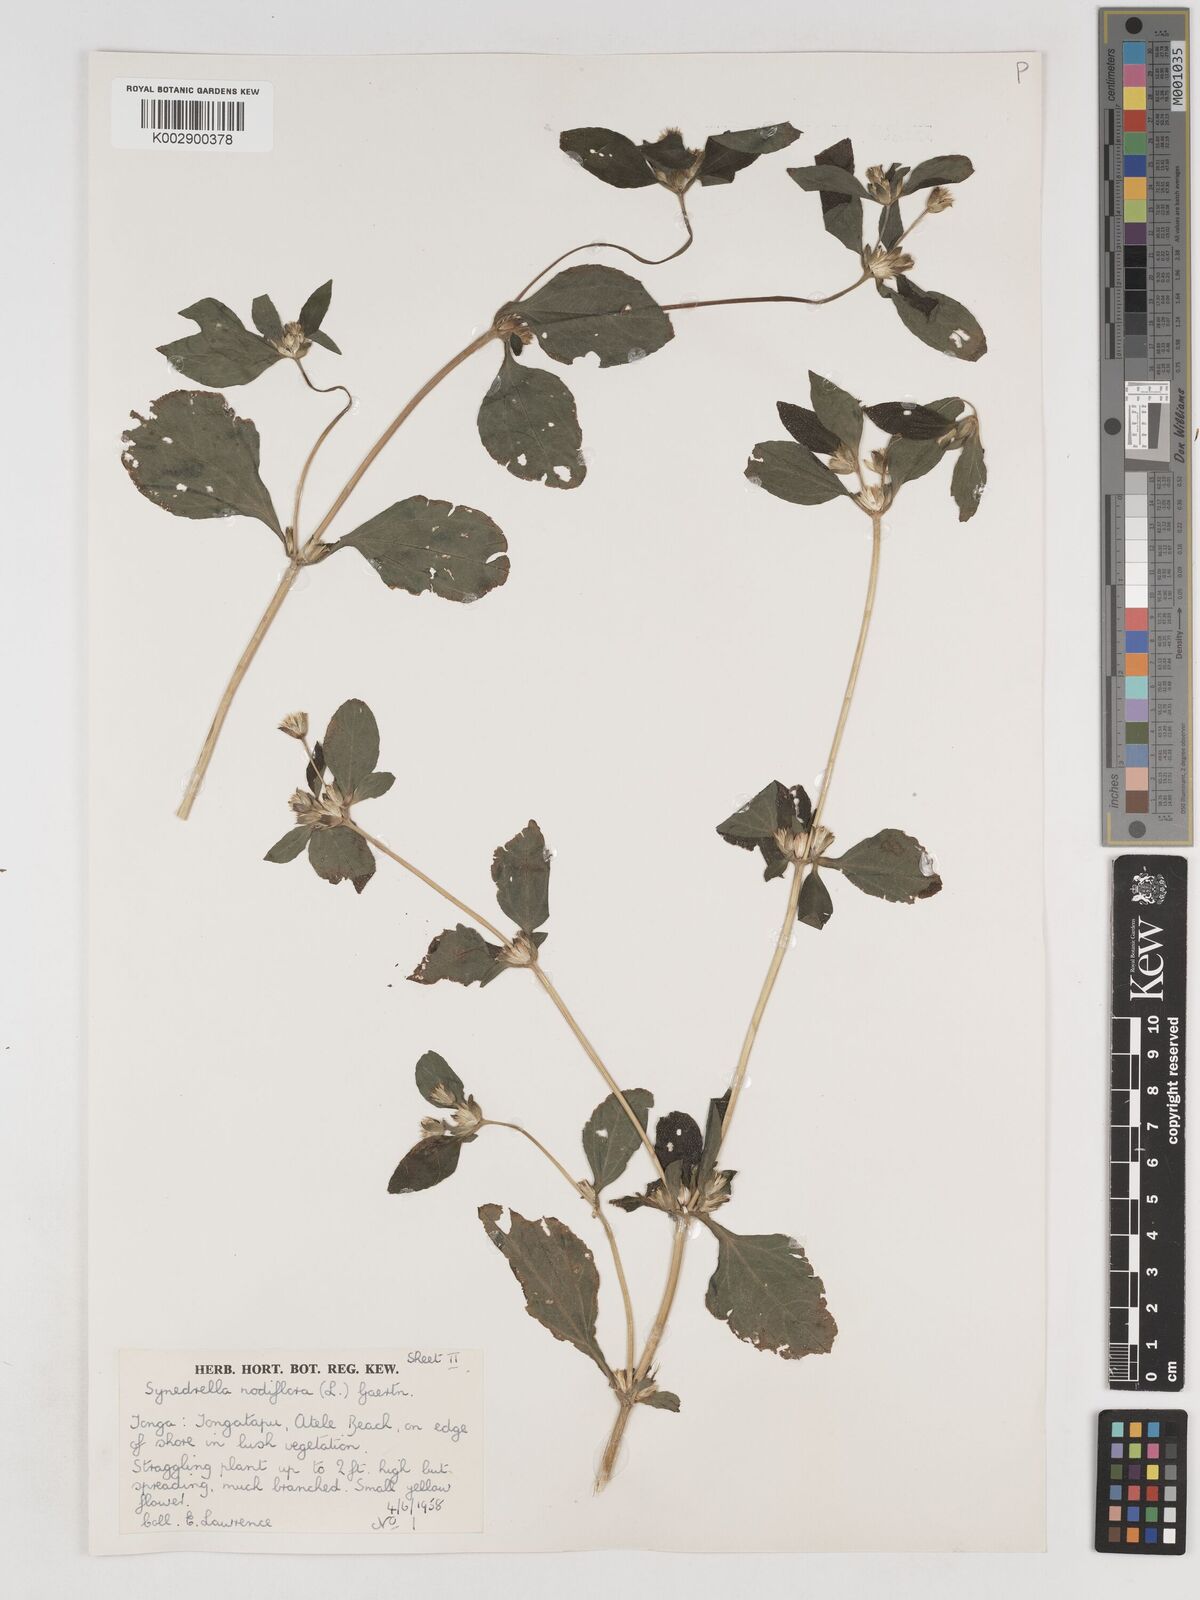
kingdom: Plantae
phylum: Tracheophyta
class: Magnoliopsida
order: Asterales
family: Asteraceae
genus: Synedrella
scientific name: Synedrella nodiflora
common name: Nodeweed
